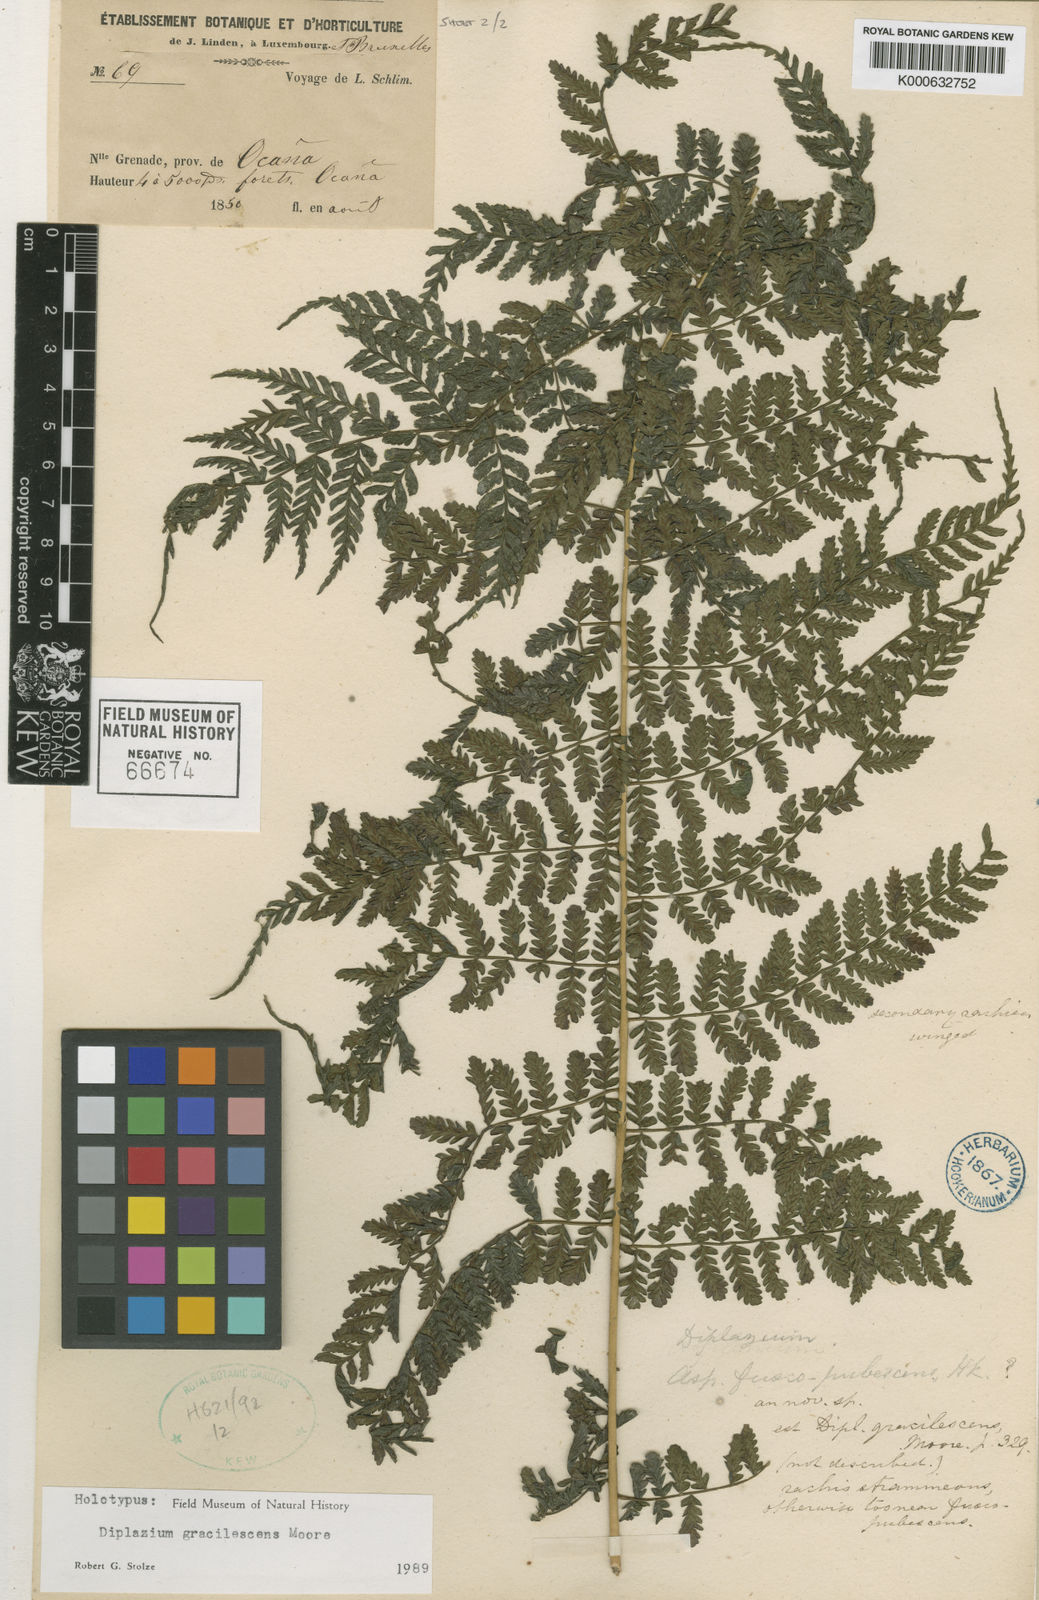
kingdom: Plantae
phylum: Tracheophyta
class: Polypodiopsida
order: Polypodiales
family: Athyriaceae
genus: Diplazium
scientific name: Diplazium gracilescens
